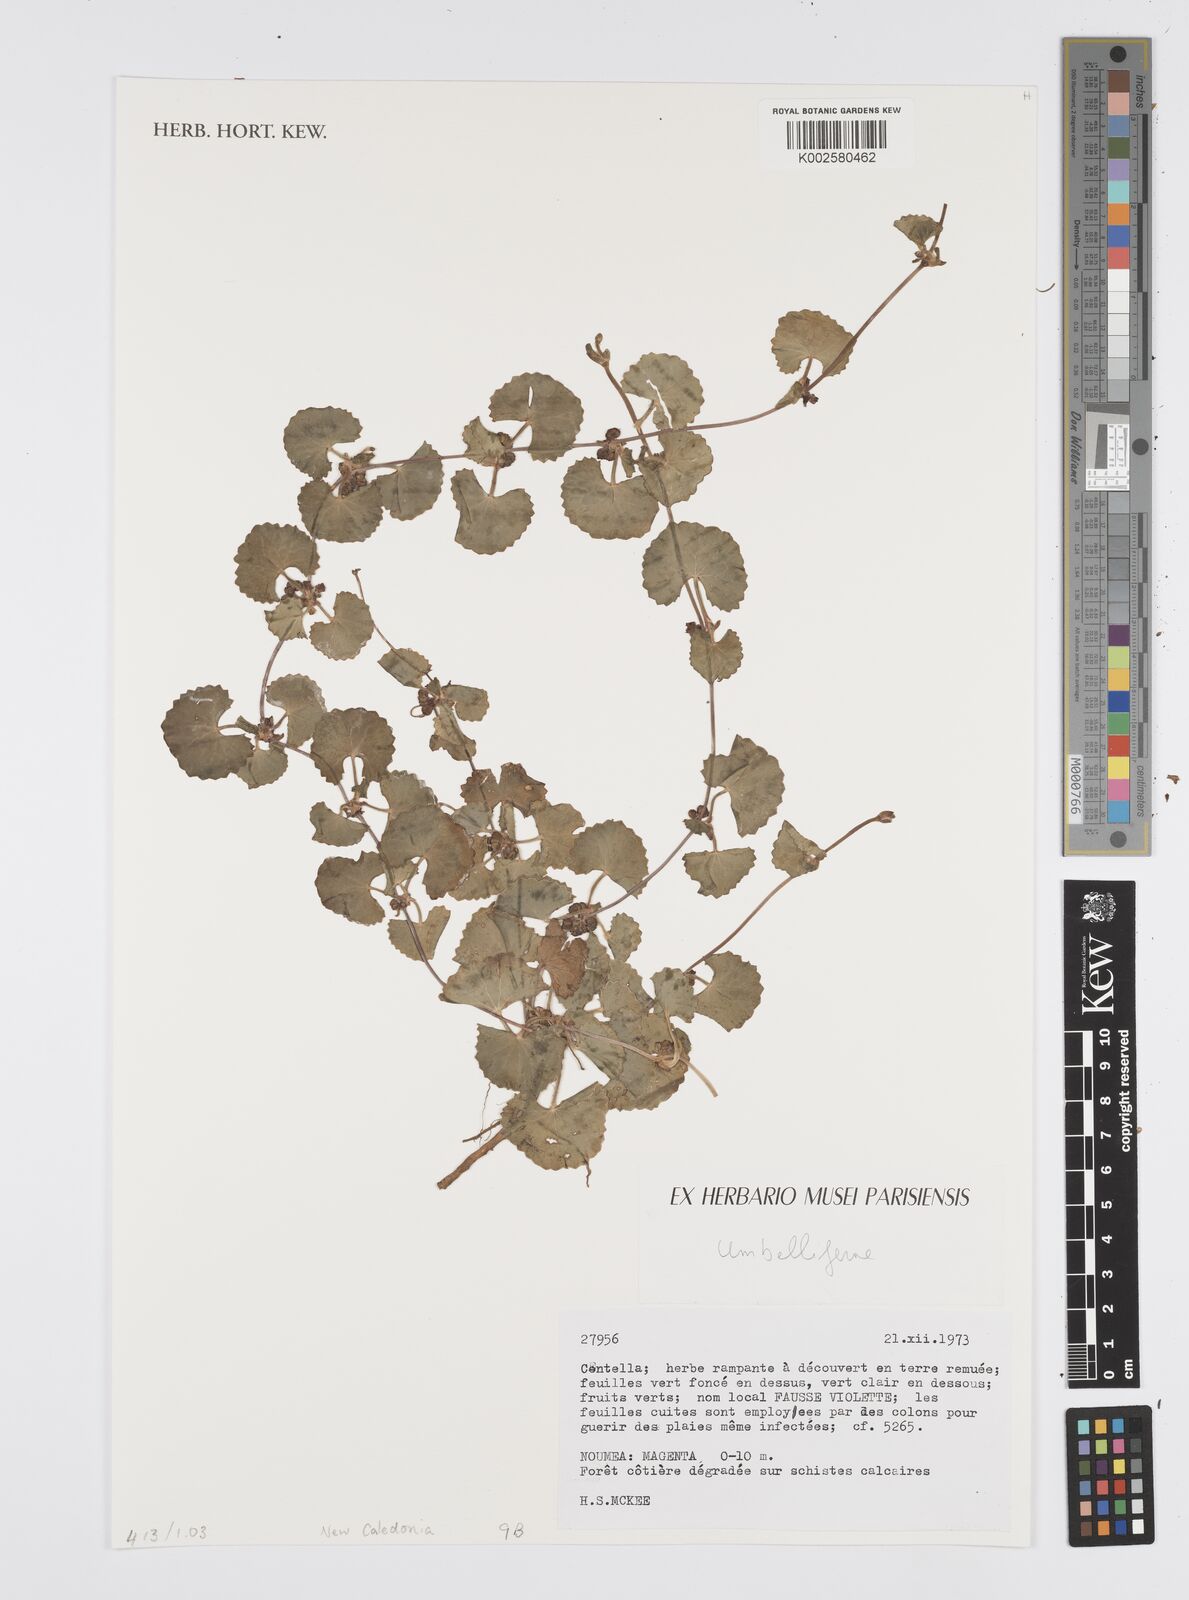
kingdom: Plantae
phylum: Tracheophyta
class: Magnoliopsida
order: Apiales
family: Apiaceae
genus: Centella
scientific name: Centella
